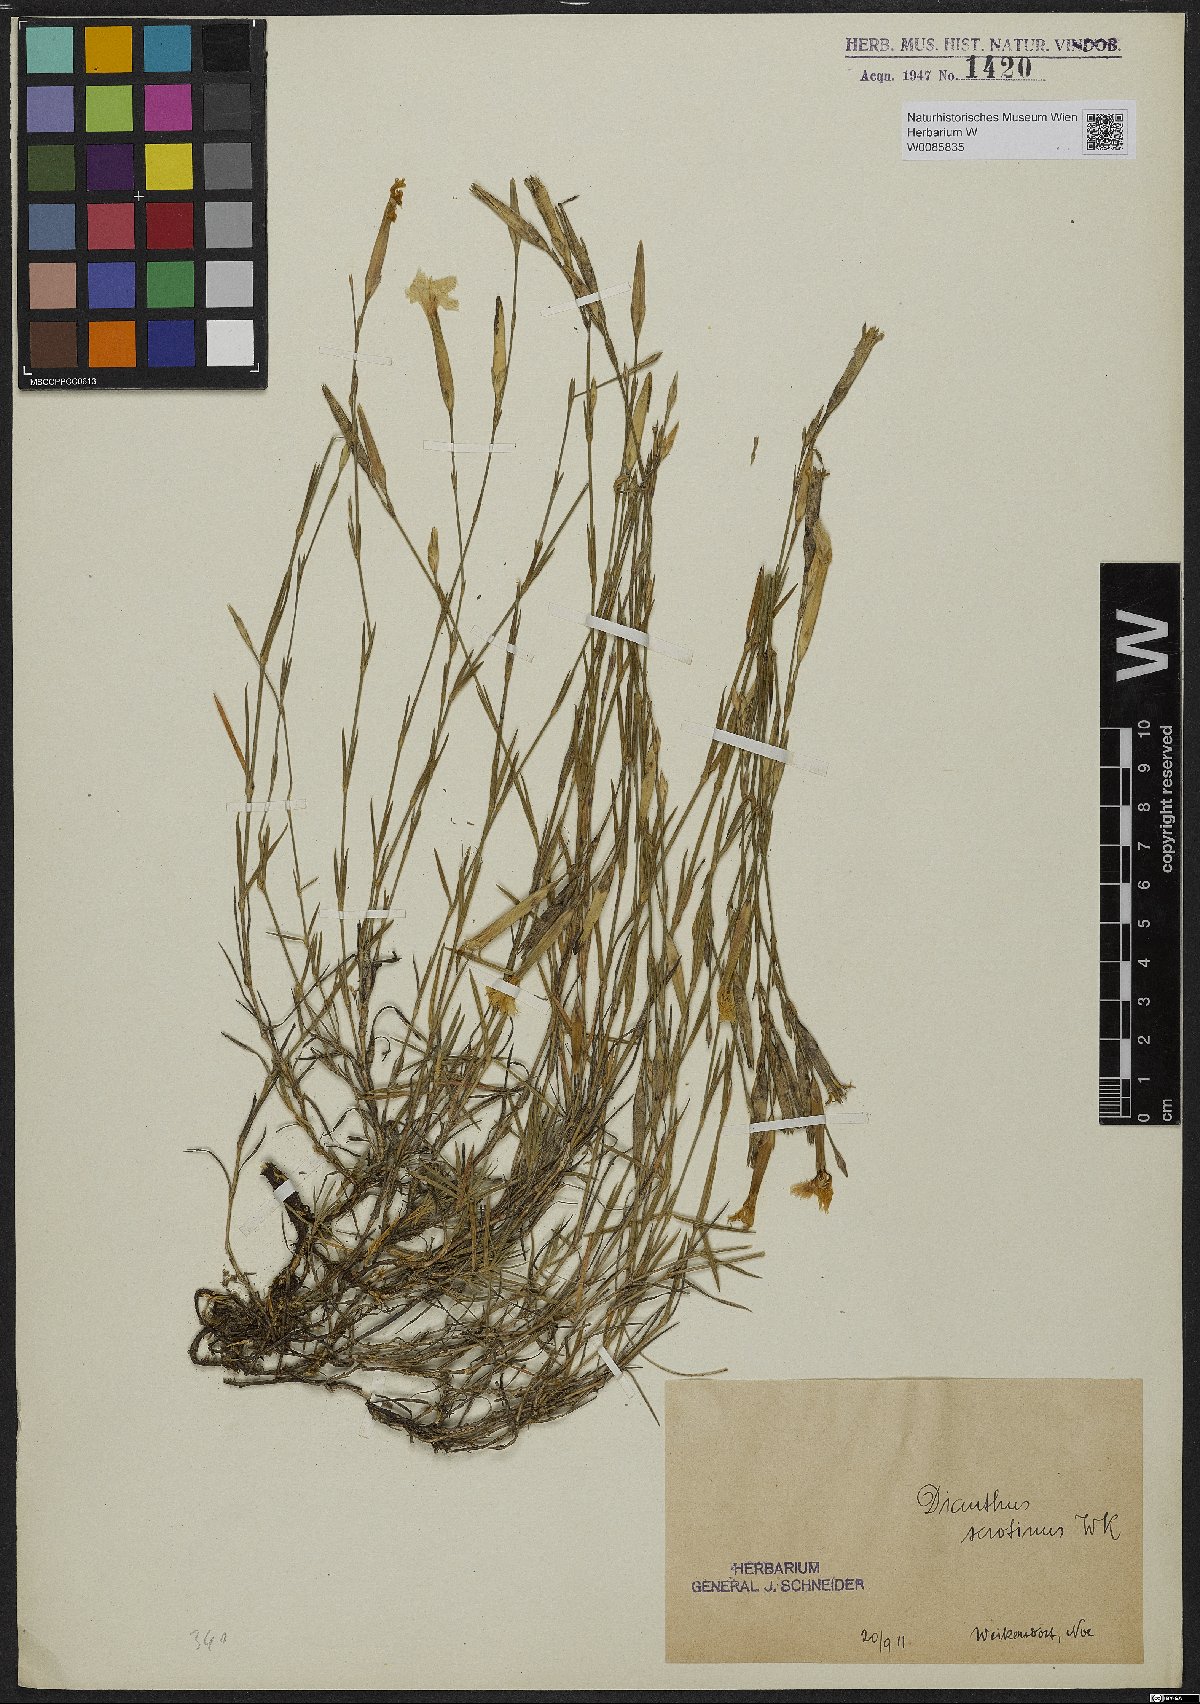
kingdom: Plantae
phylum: Tracheophyta
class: Magnoliopsida
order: Caryophyllales
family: Caryophyllaceae
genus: Dianthus
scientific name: Dianthus serotinus
